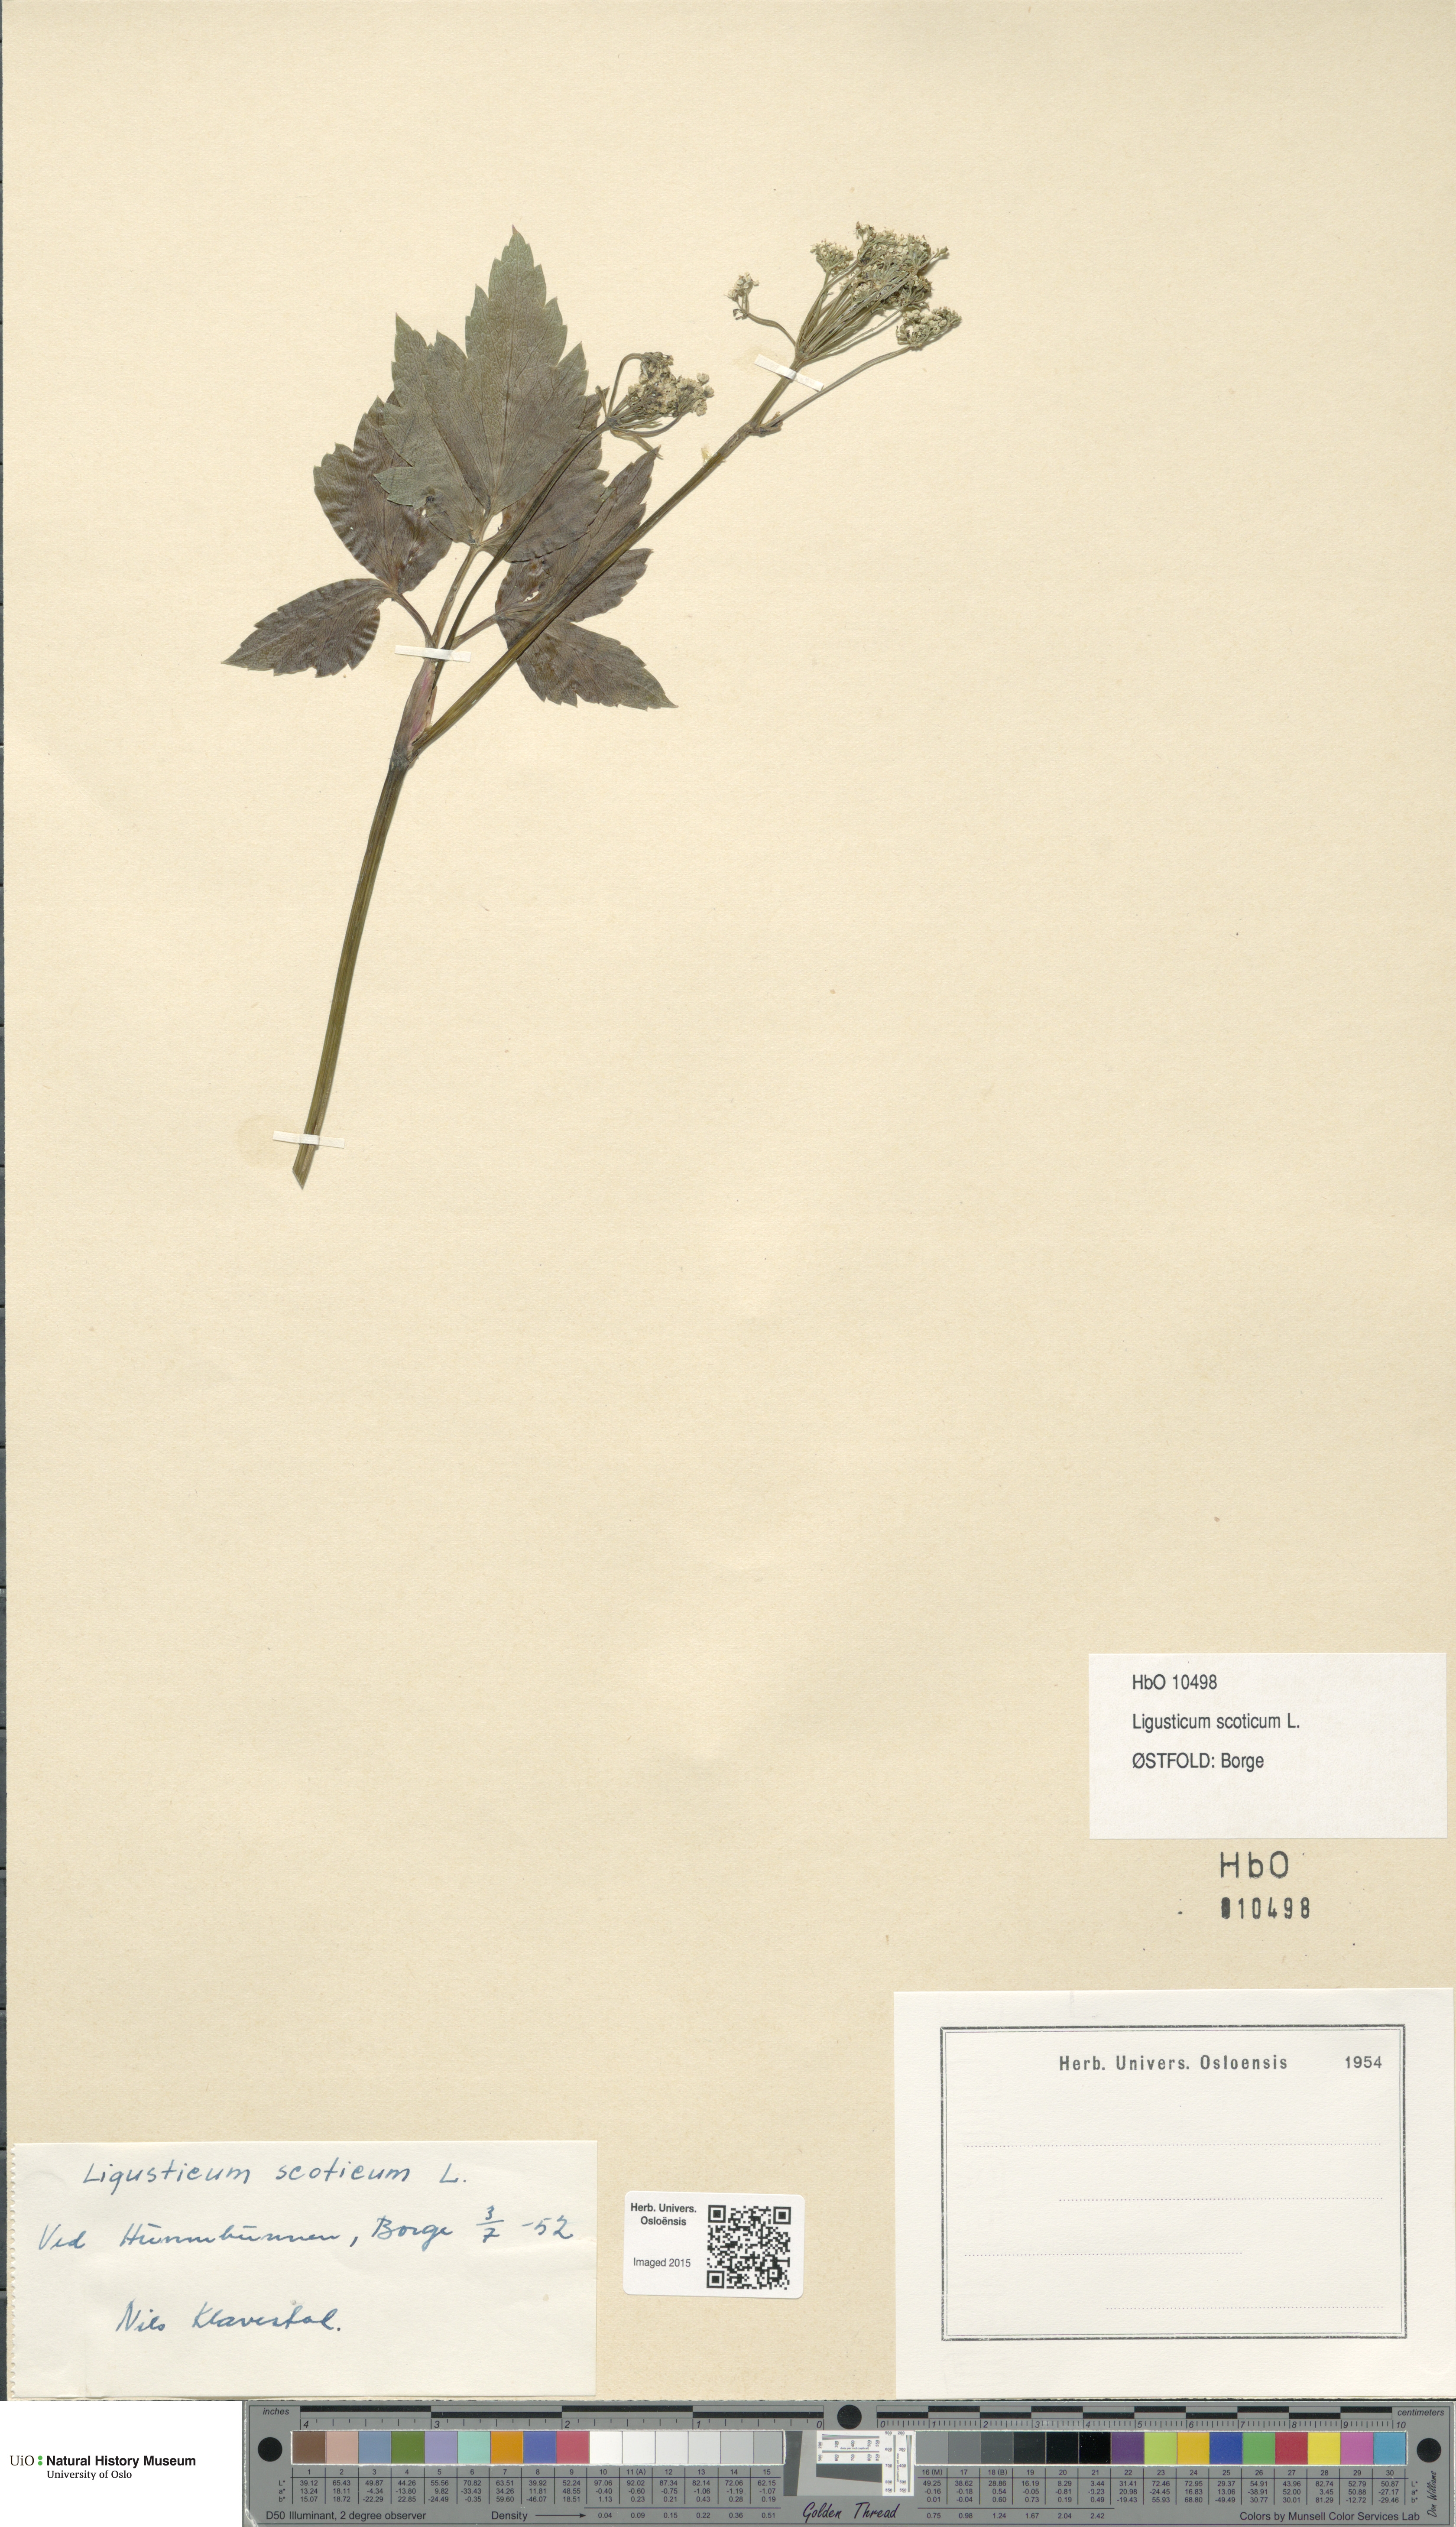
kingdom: Plantae
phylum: Tracheophyta
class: Magnoliopsida
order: Apiales
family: Apiaceae
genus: Ligusticum
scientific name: Ligusticum scothicum
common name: Beach lovage
